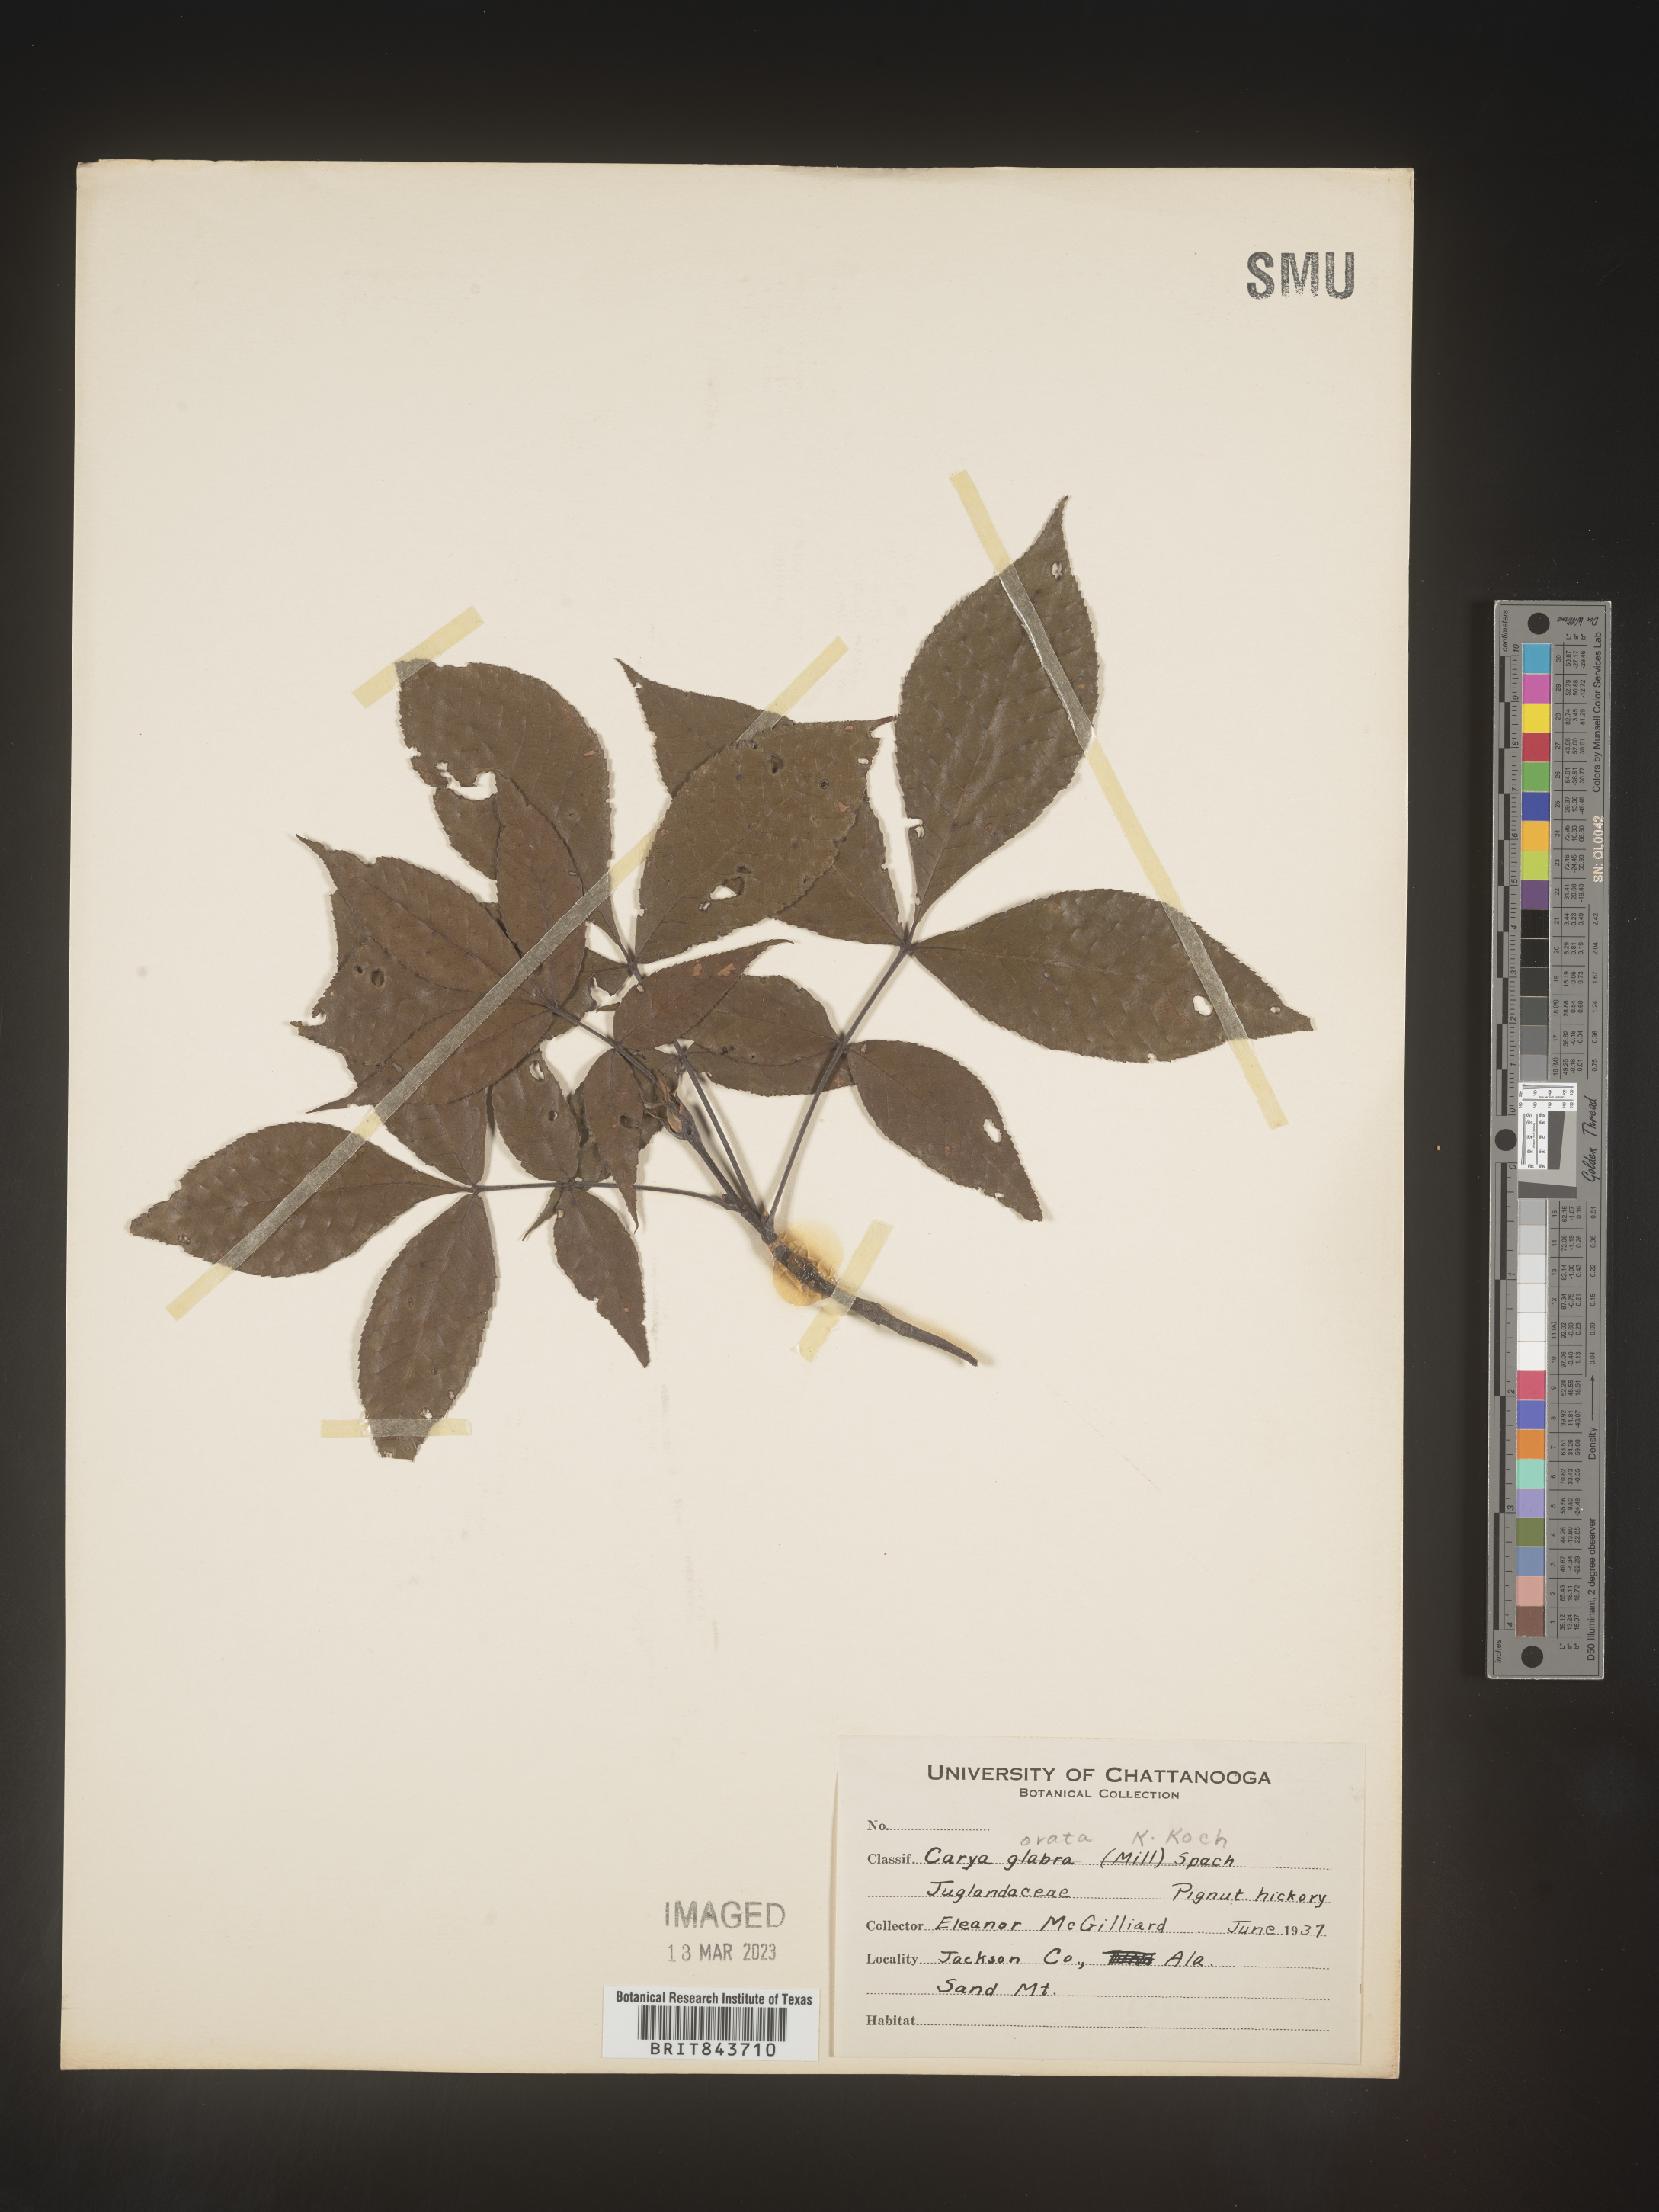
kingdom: Plantae
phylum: Tracheophyta
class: Magnoliopsida
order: Fagales
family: Juglandaceae
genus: Carya
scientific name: Carya ovata
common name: Shagbark hickory
